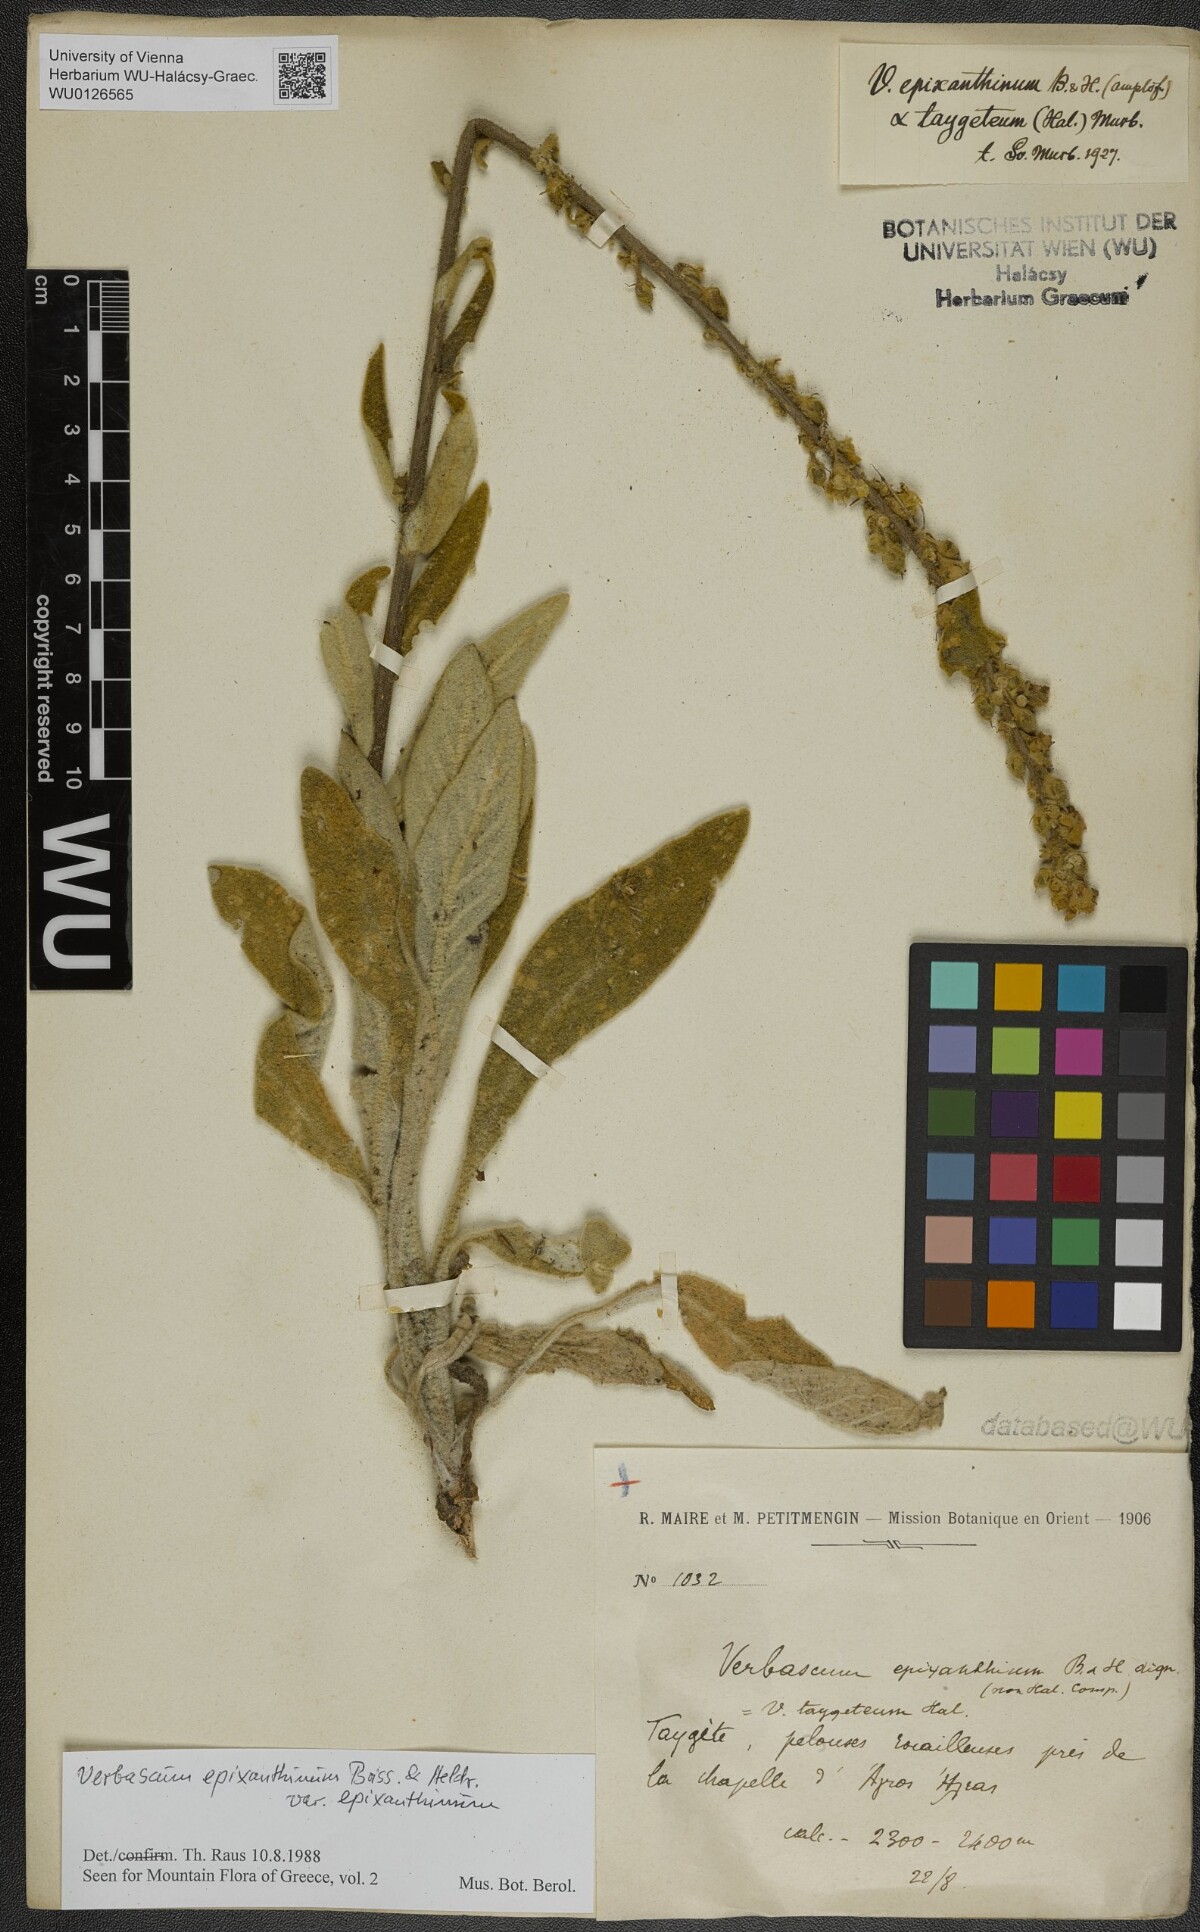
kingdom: Plantae
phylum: Tracheophyta
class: Magnoliopsida
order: Lamiales
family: Scrophulariaceae
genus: Verbascum
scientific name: Verbascum epixanthinum
